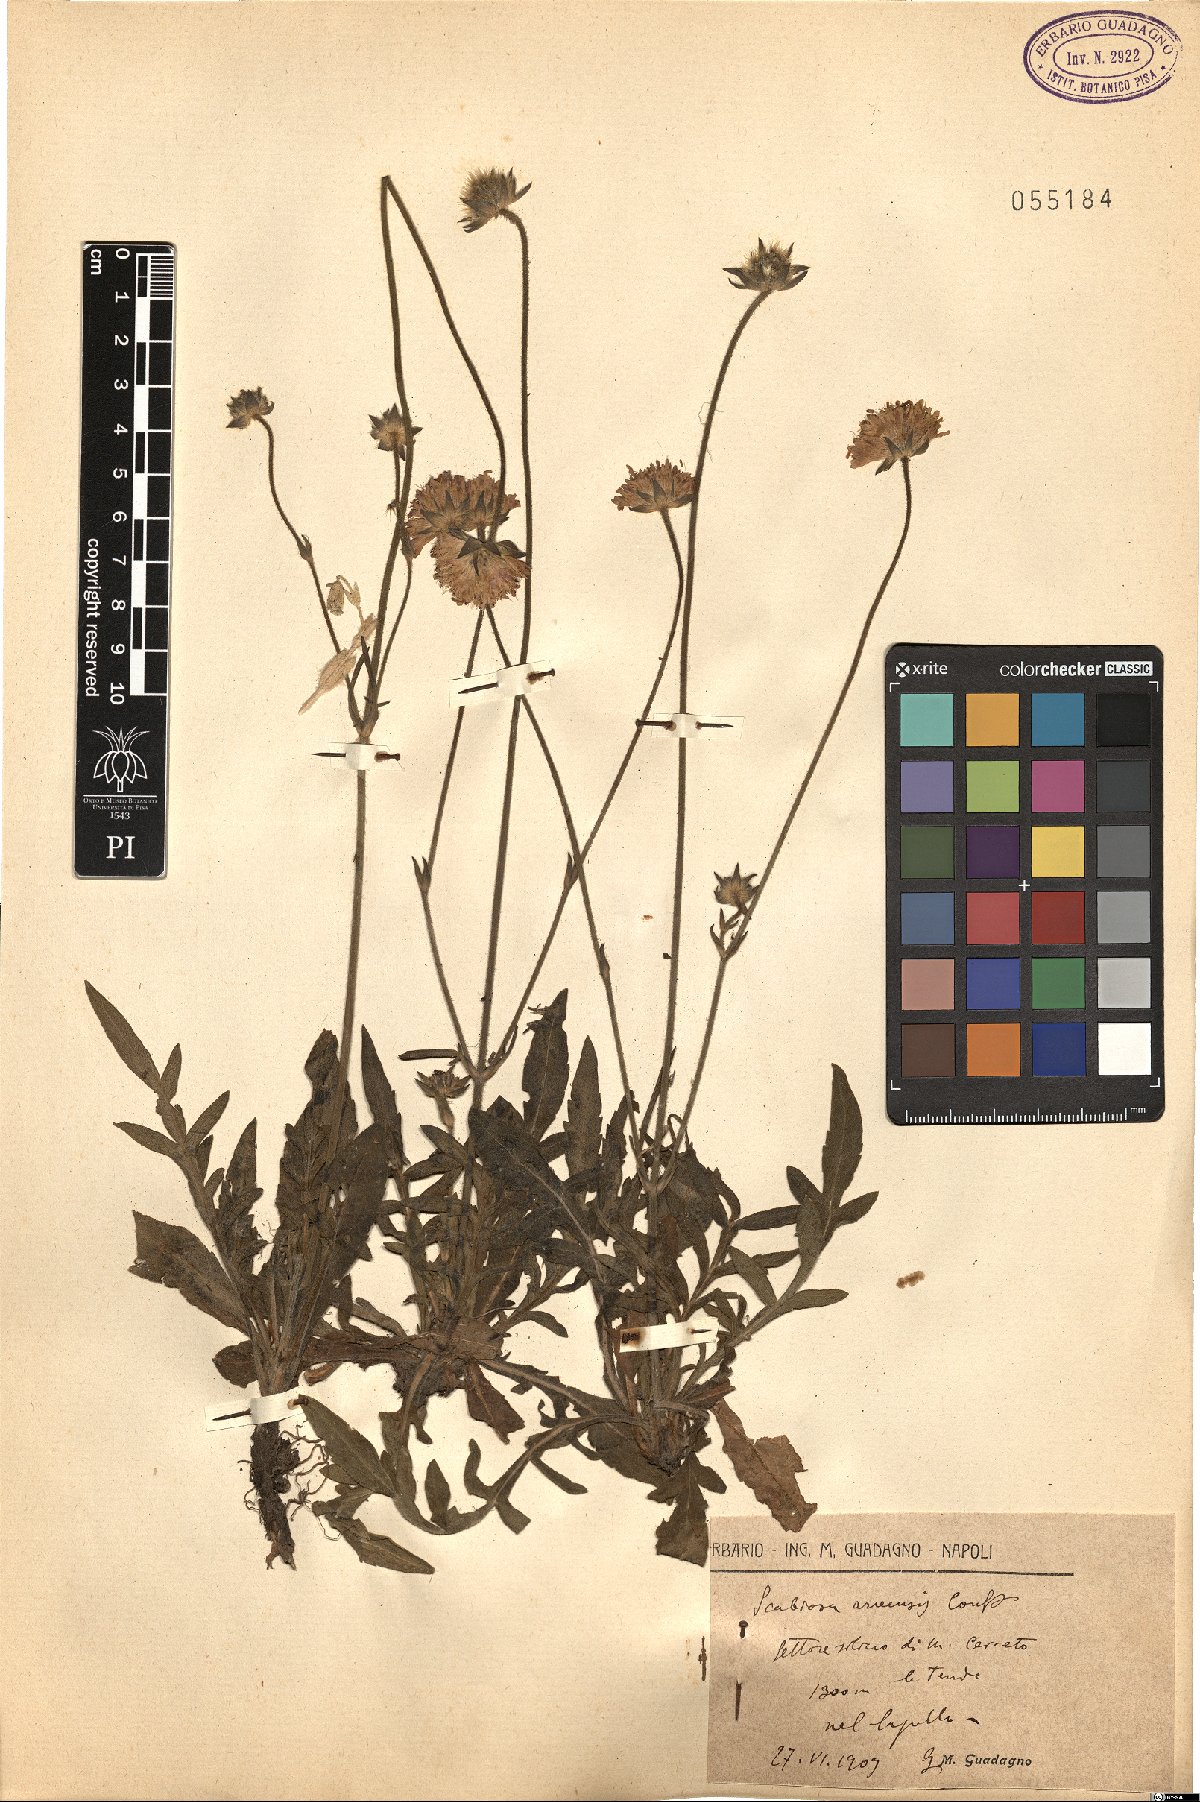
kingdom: Plantae
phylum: Tracheophyta
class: Magnoliopsida
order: Dipsacales
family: Caprifoliaceae
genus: Knautia
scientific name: Knautia arvensis
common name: Field scabiosa
